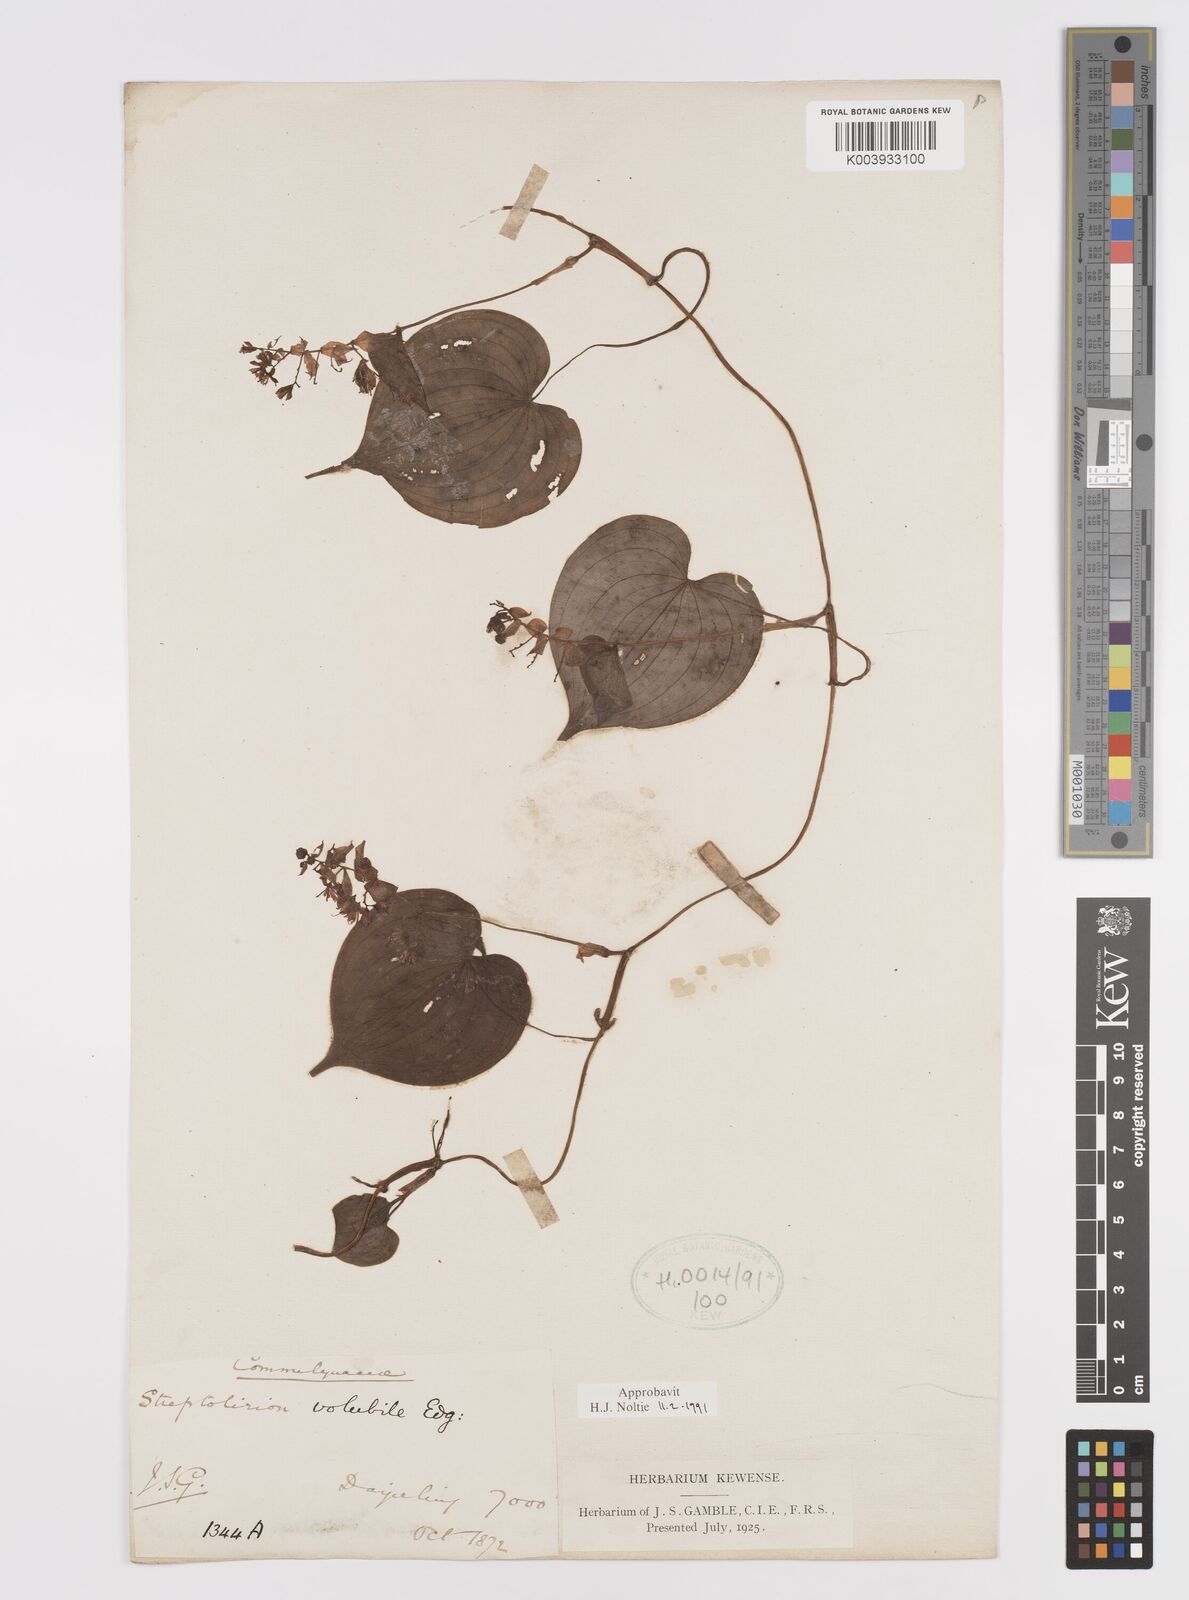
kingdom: Plantae
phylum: Tracheophyta
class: Liliopsida
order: Commelinales
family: Commelinaceae
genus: Streptolirion
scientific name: Streptolirion volubile
